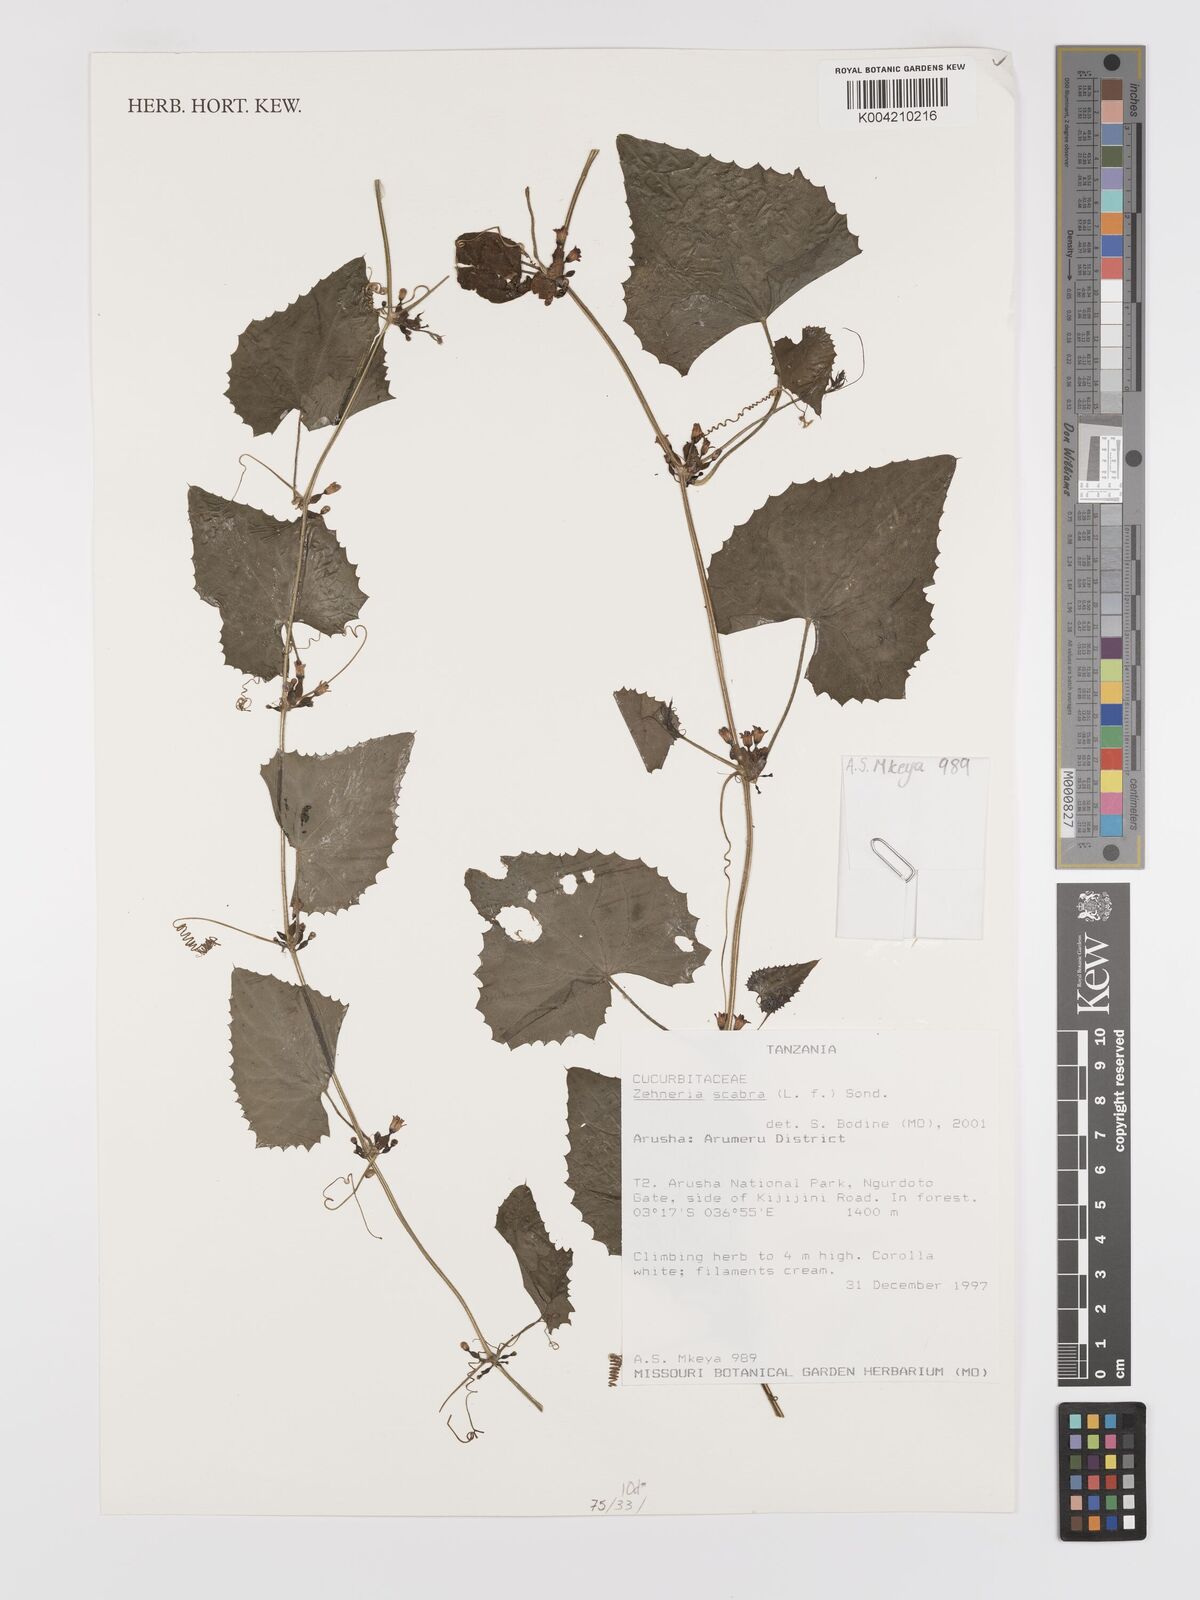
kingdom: Plantae
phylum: Tracheophyta
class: Magnoliopsida
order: Cucurbitales
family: Cucurbitaceae
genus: Zehneria
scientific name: Zehneria scabra
